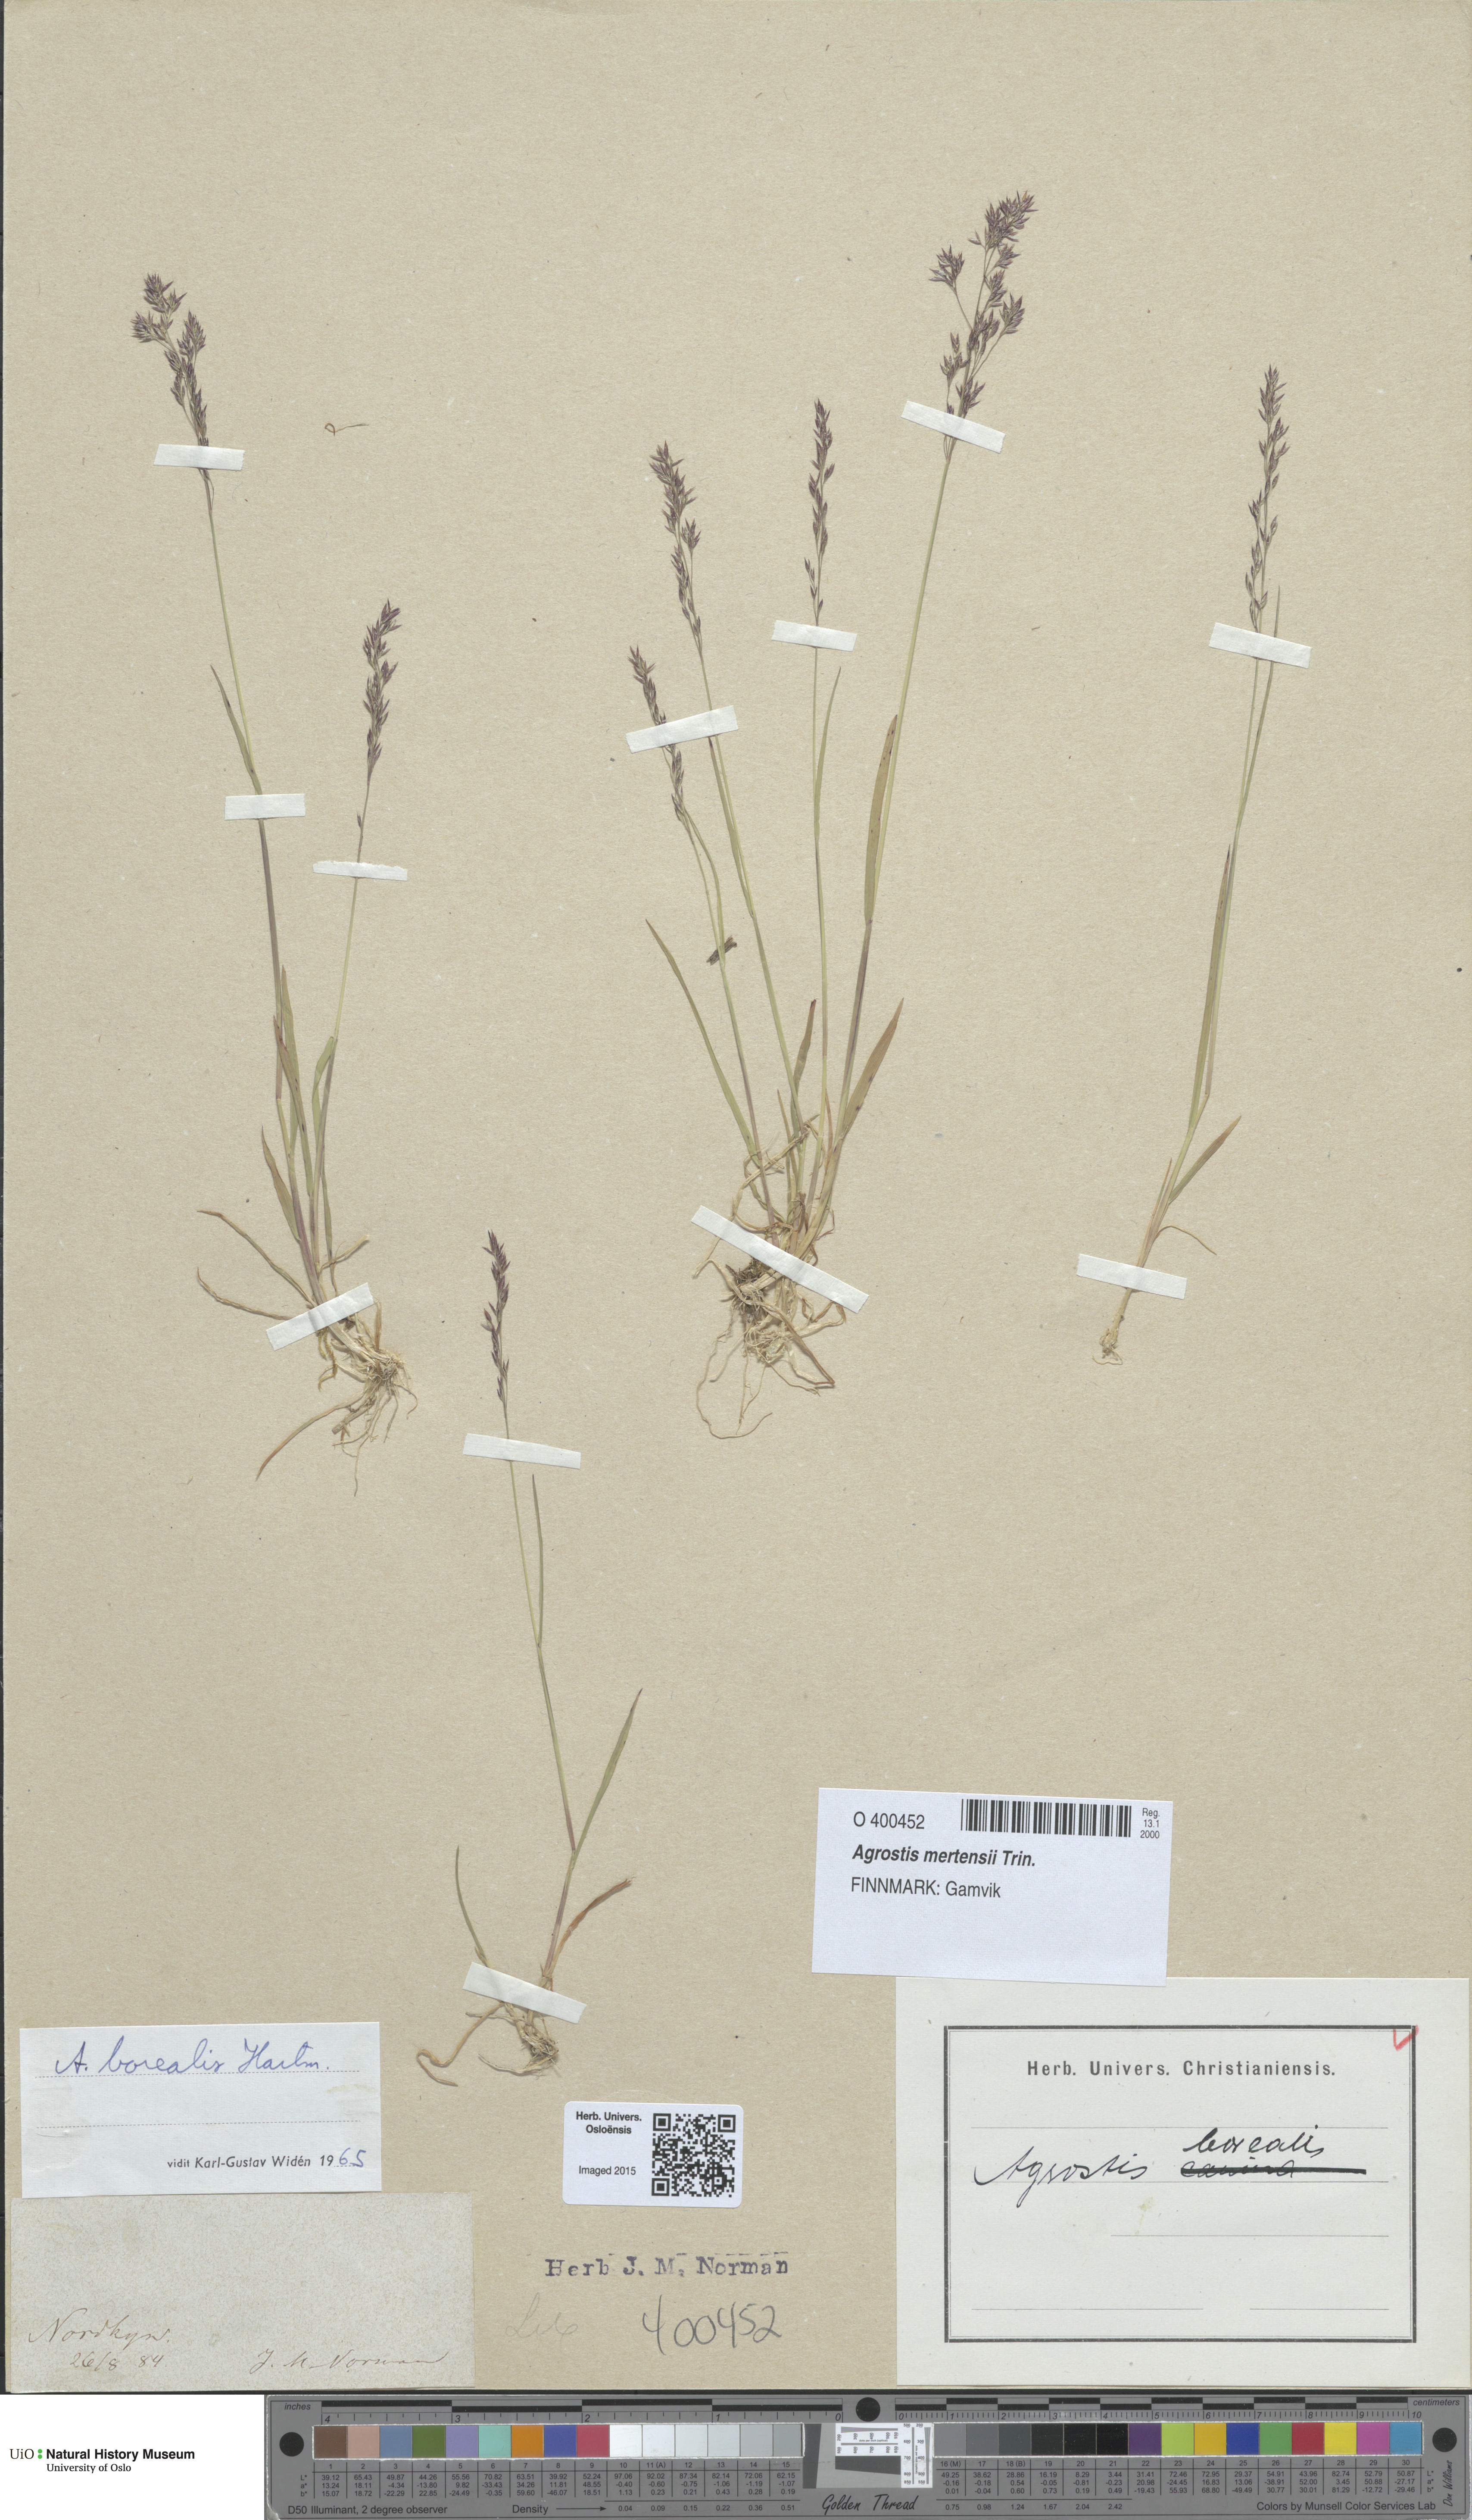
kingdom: Plantae
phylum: Tracheophyta
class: Liliopsida
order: Poales
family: Poaceae
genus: Agrostis
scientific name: Agrostis mertensii
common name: Northern bent
